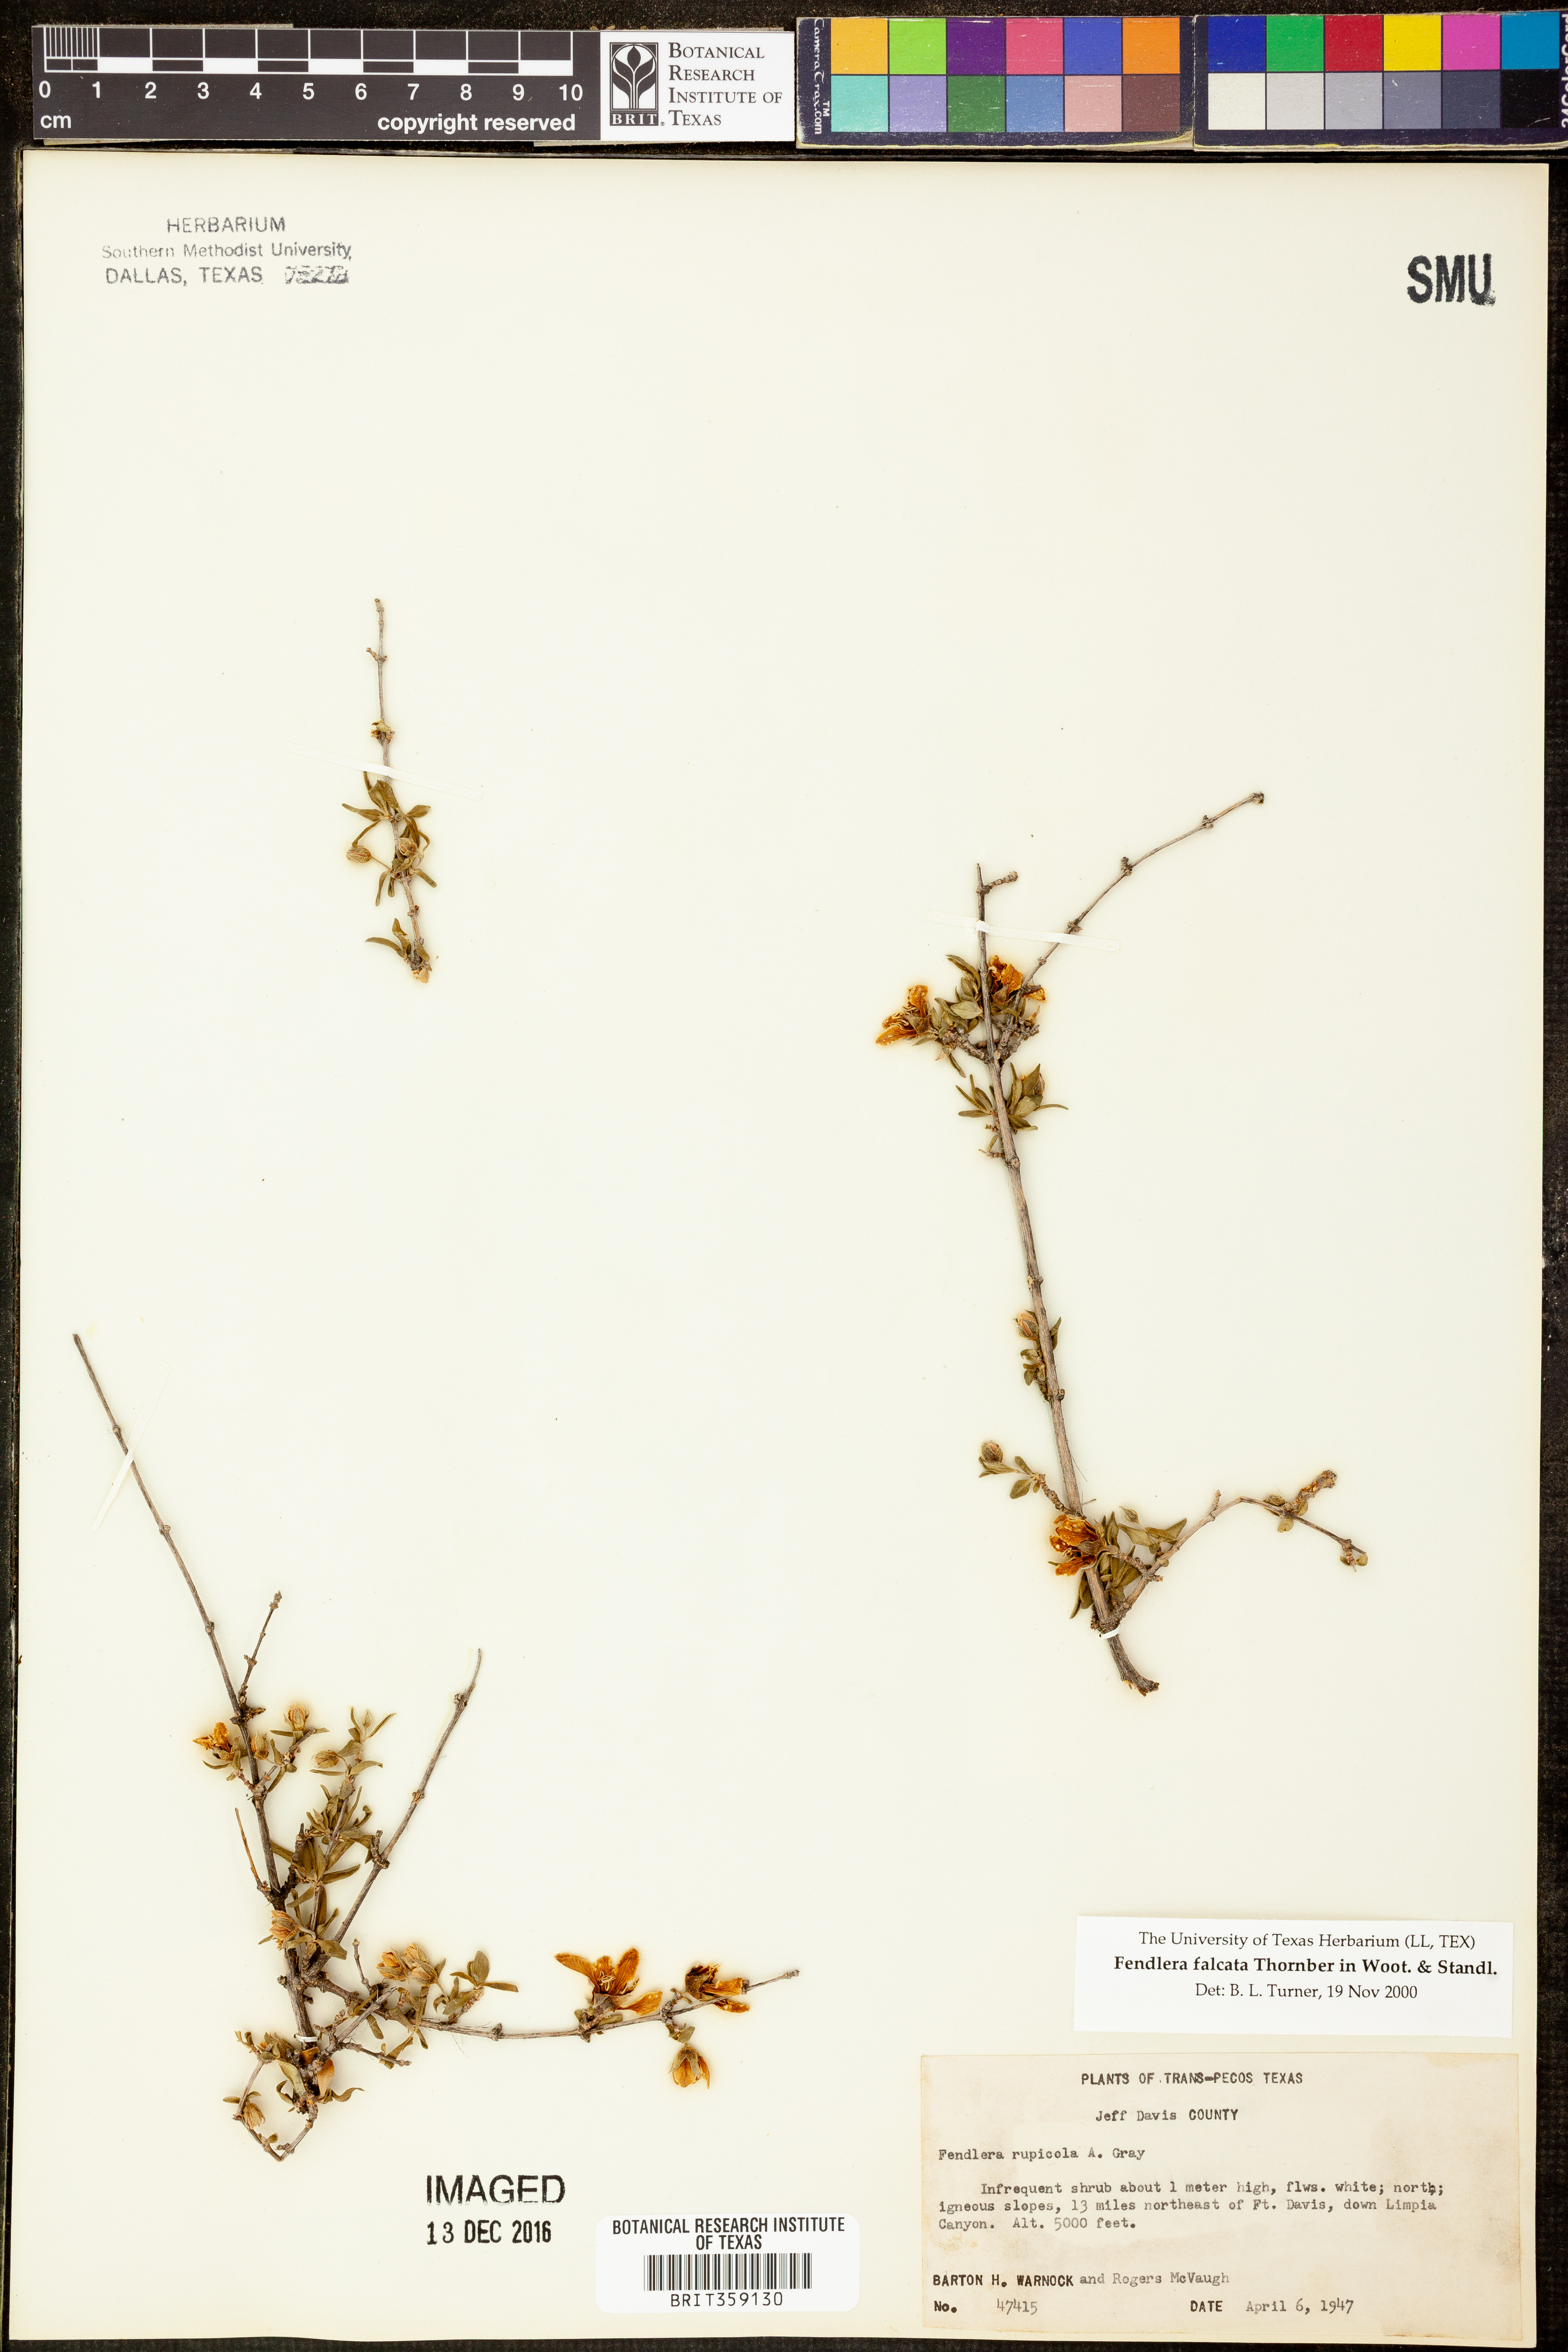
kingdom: Plantae
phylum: Tracheophyta
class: Magnoliopsida
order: Cornales
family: Hydrangeaceae
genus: Fendlera
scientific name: Fendlera rupicola
